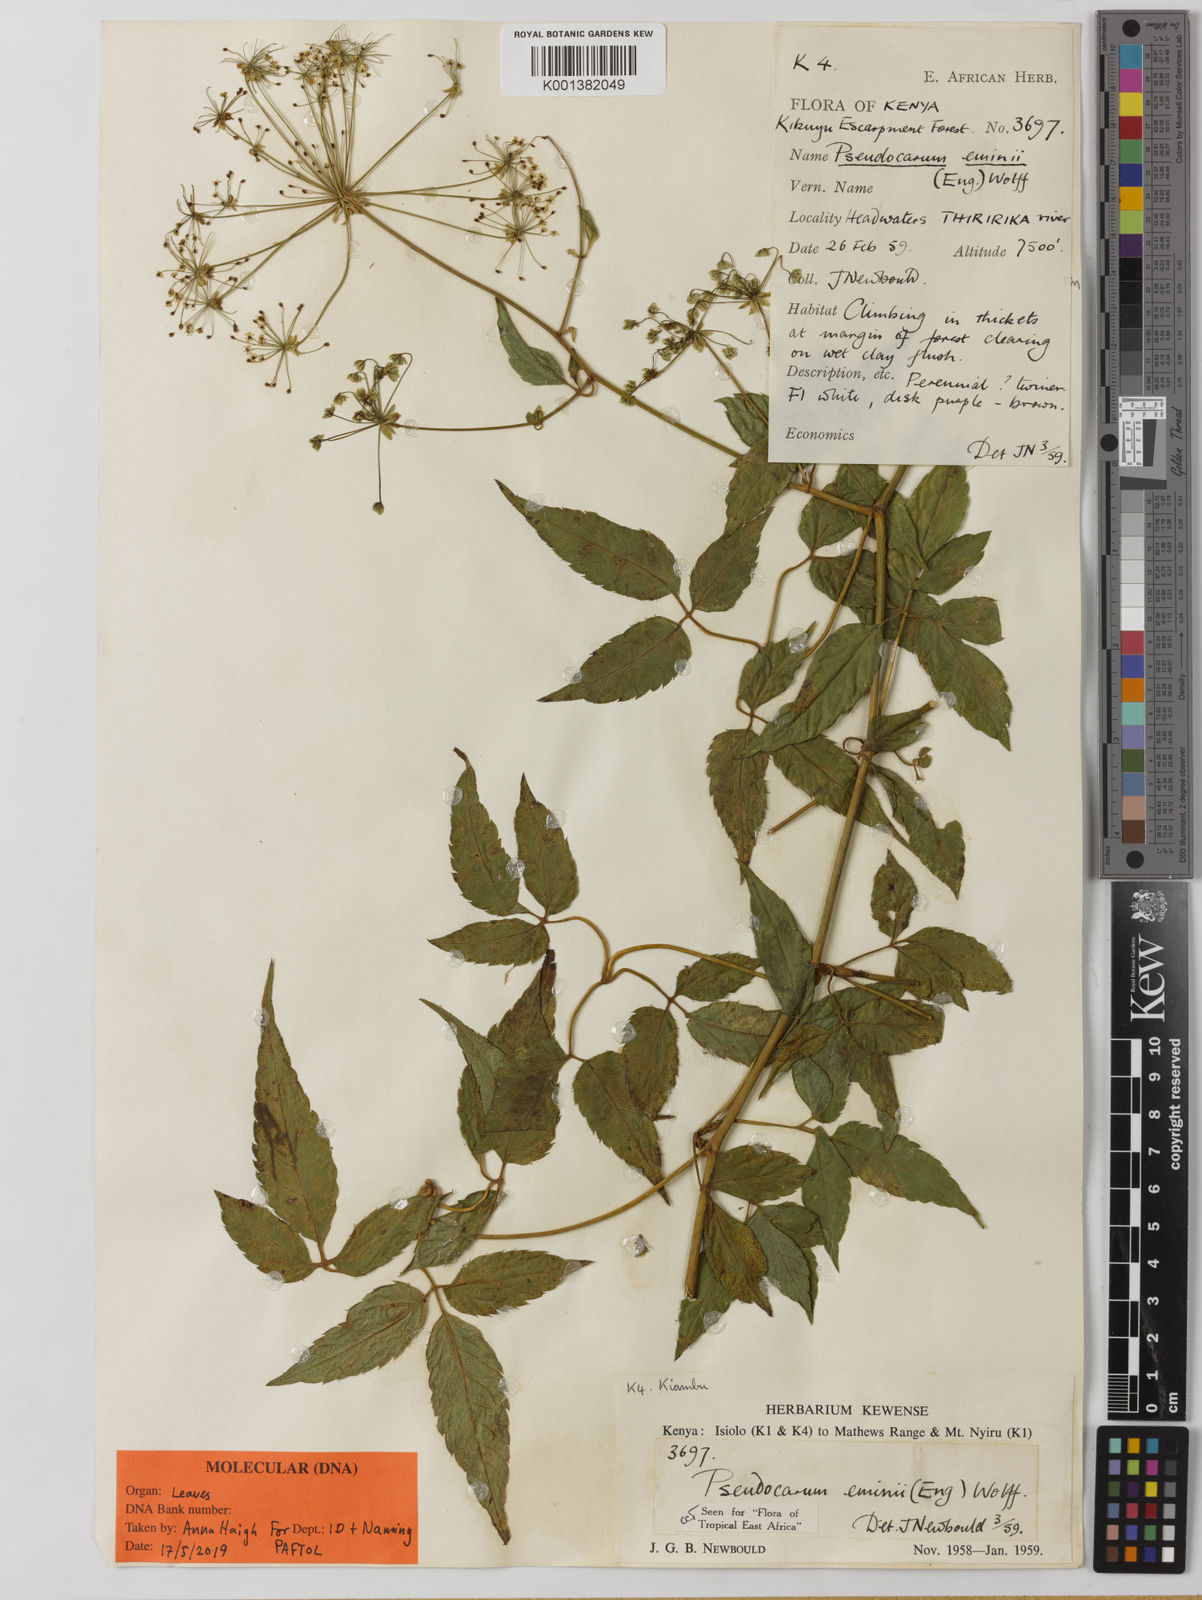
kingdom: Plantae
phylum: Tracheophyta
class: Magnoliopsida
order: Apiales
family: Apiaceae
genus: Pseudocarum
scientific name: Pseudocarum eminii
